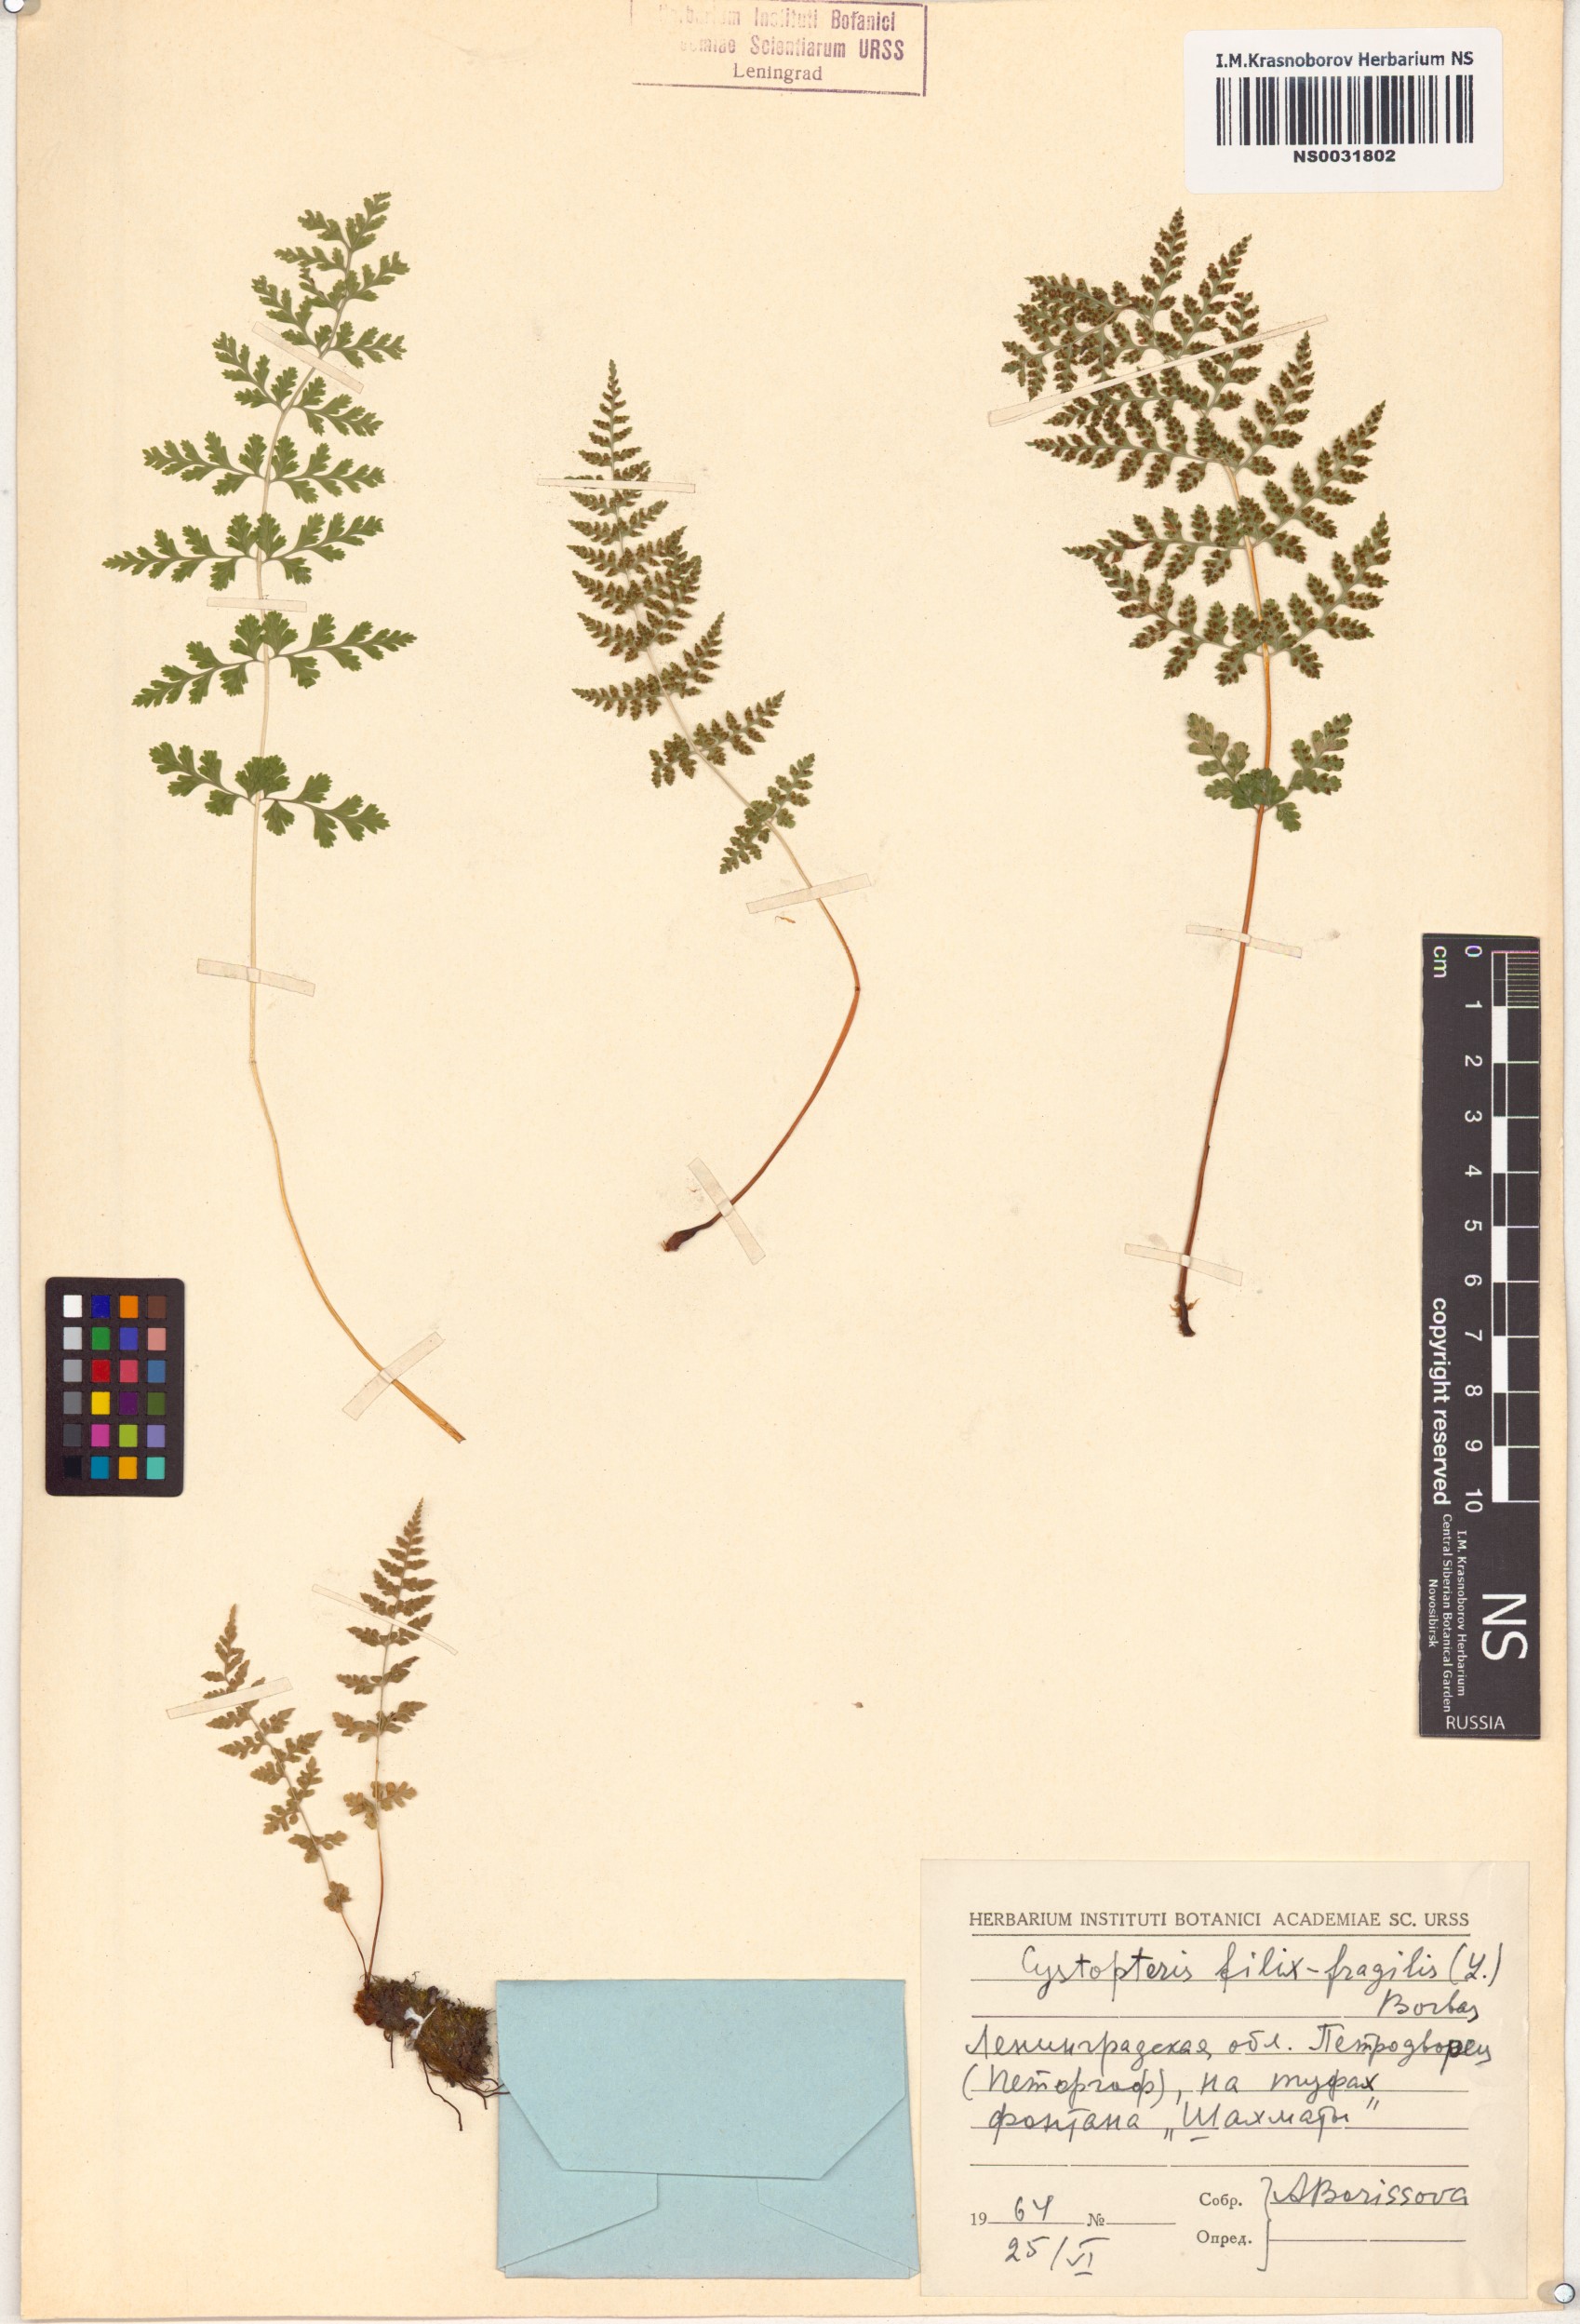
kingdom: Plantae
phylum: Tracheophyta
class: Polypodiopsida
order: Polypodiales
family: Cystopteridaceae
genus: Cystopteris
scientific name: Cystopteris fragilis
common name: Brittle bladder fern
